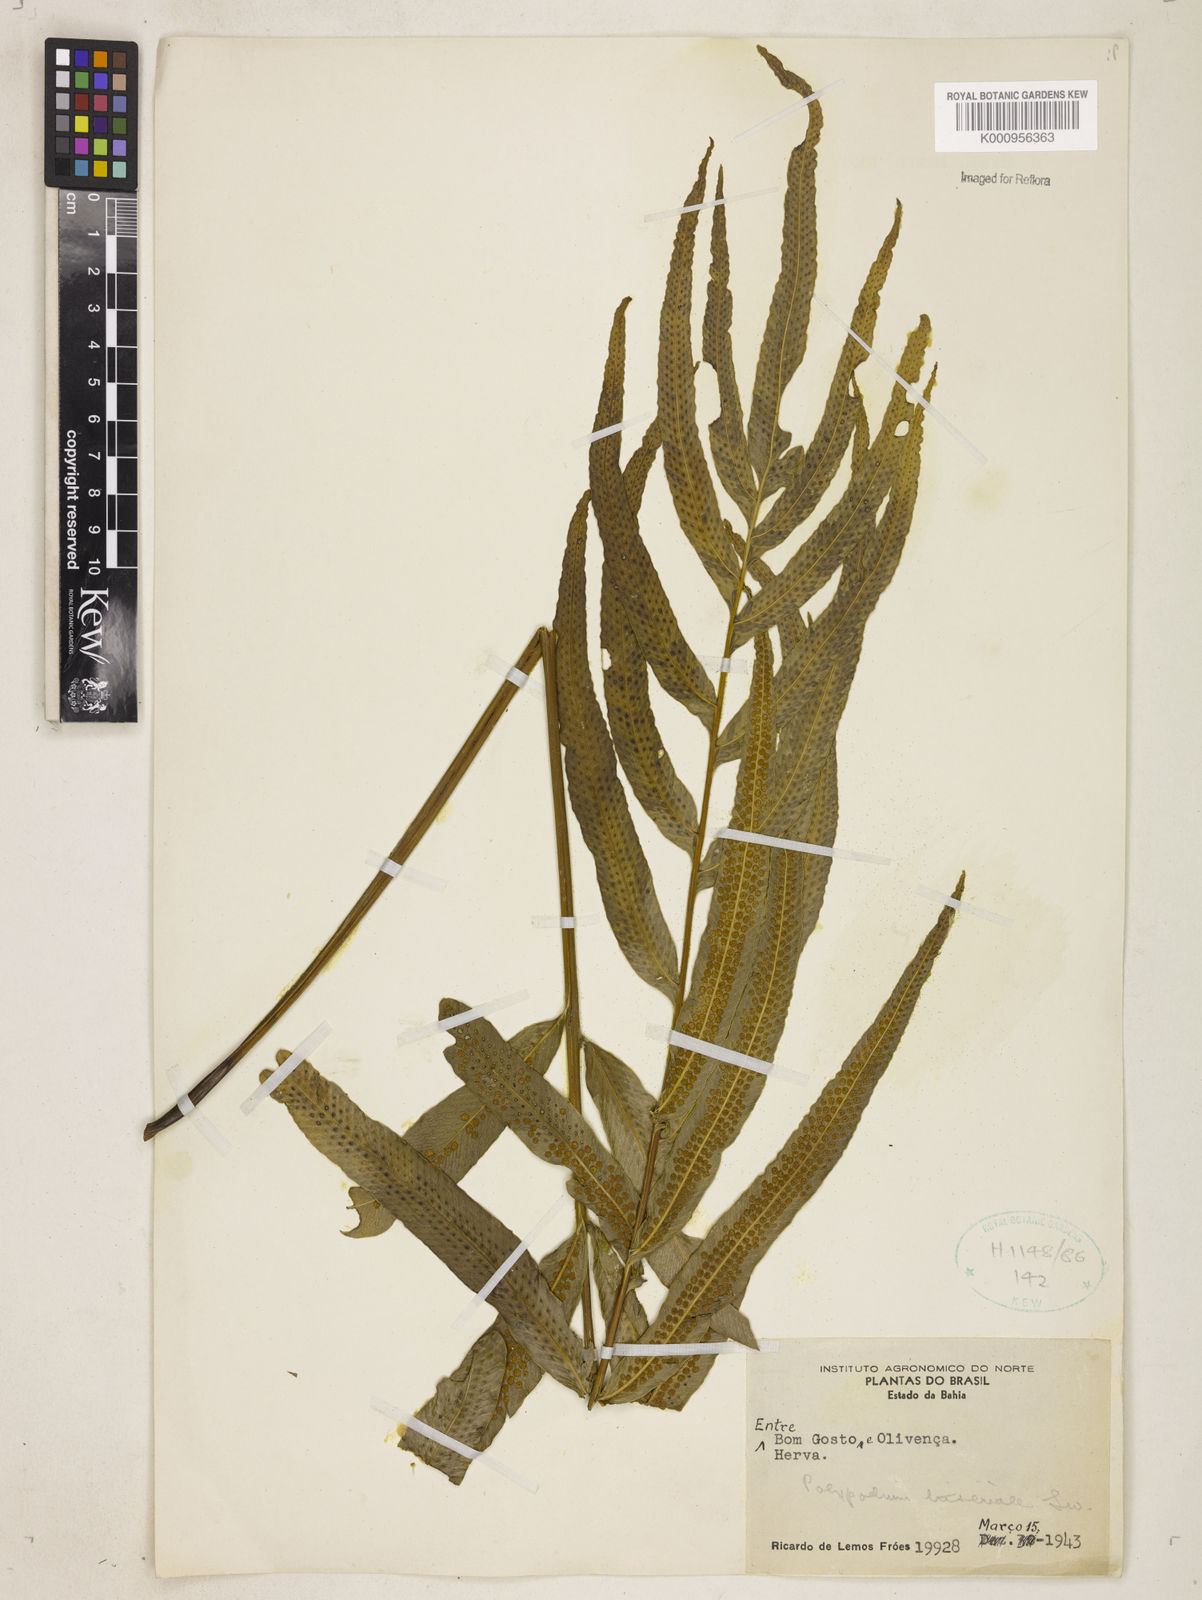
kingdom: Plantae
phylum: Tracheophyta
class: Polypodiopsida
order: Polypodiales
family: Polypodiaceae
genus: Serpocaulon
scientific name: Serpocaulon triseriale
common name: Angle-vein fern
